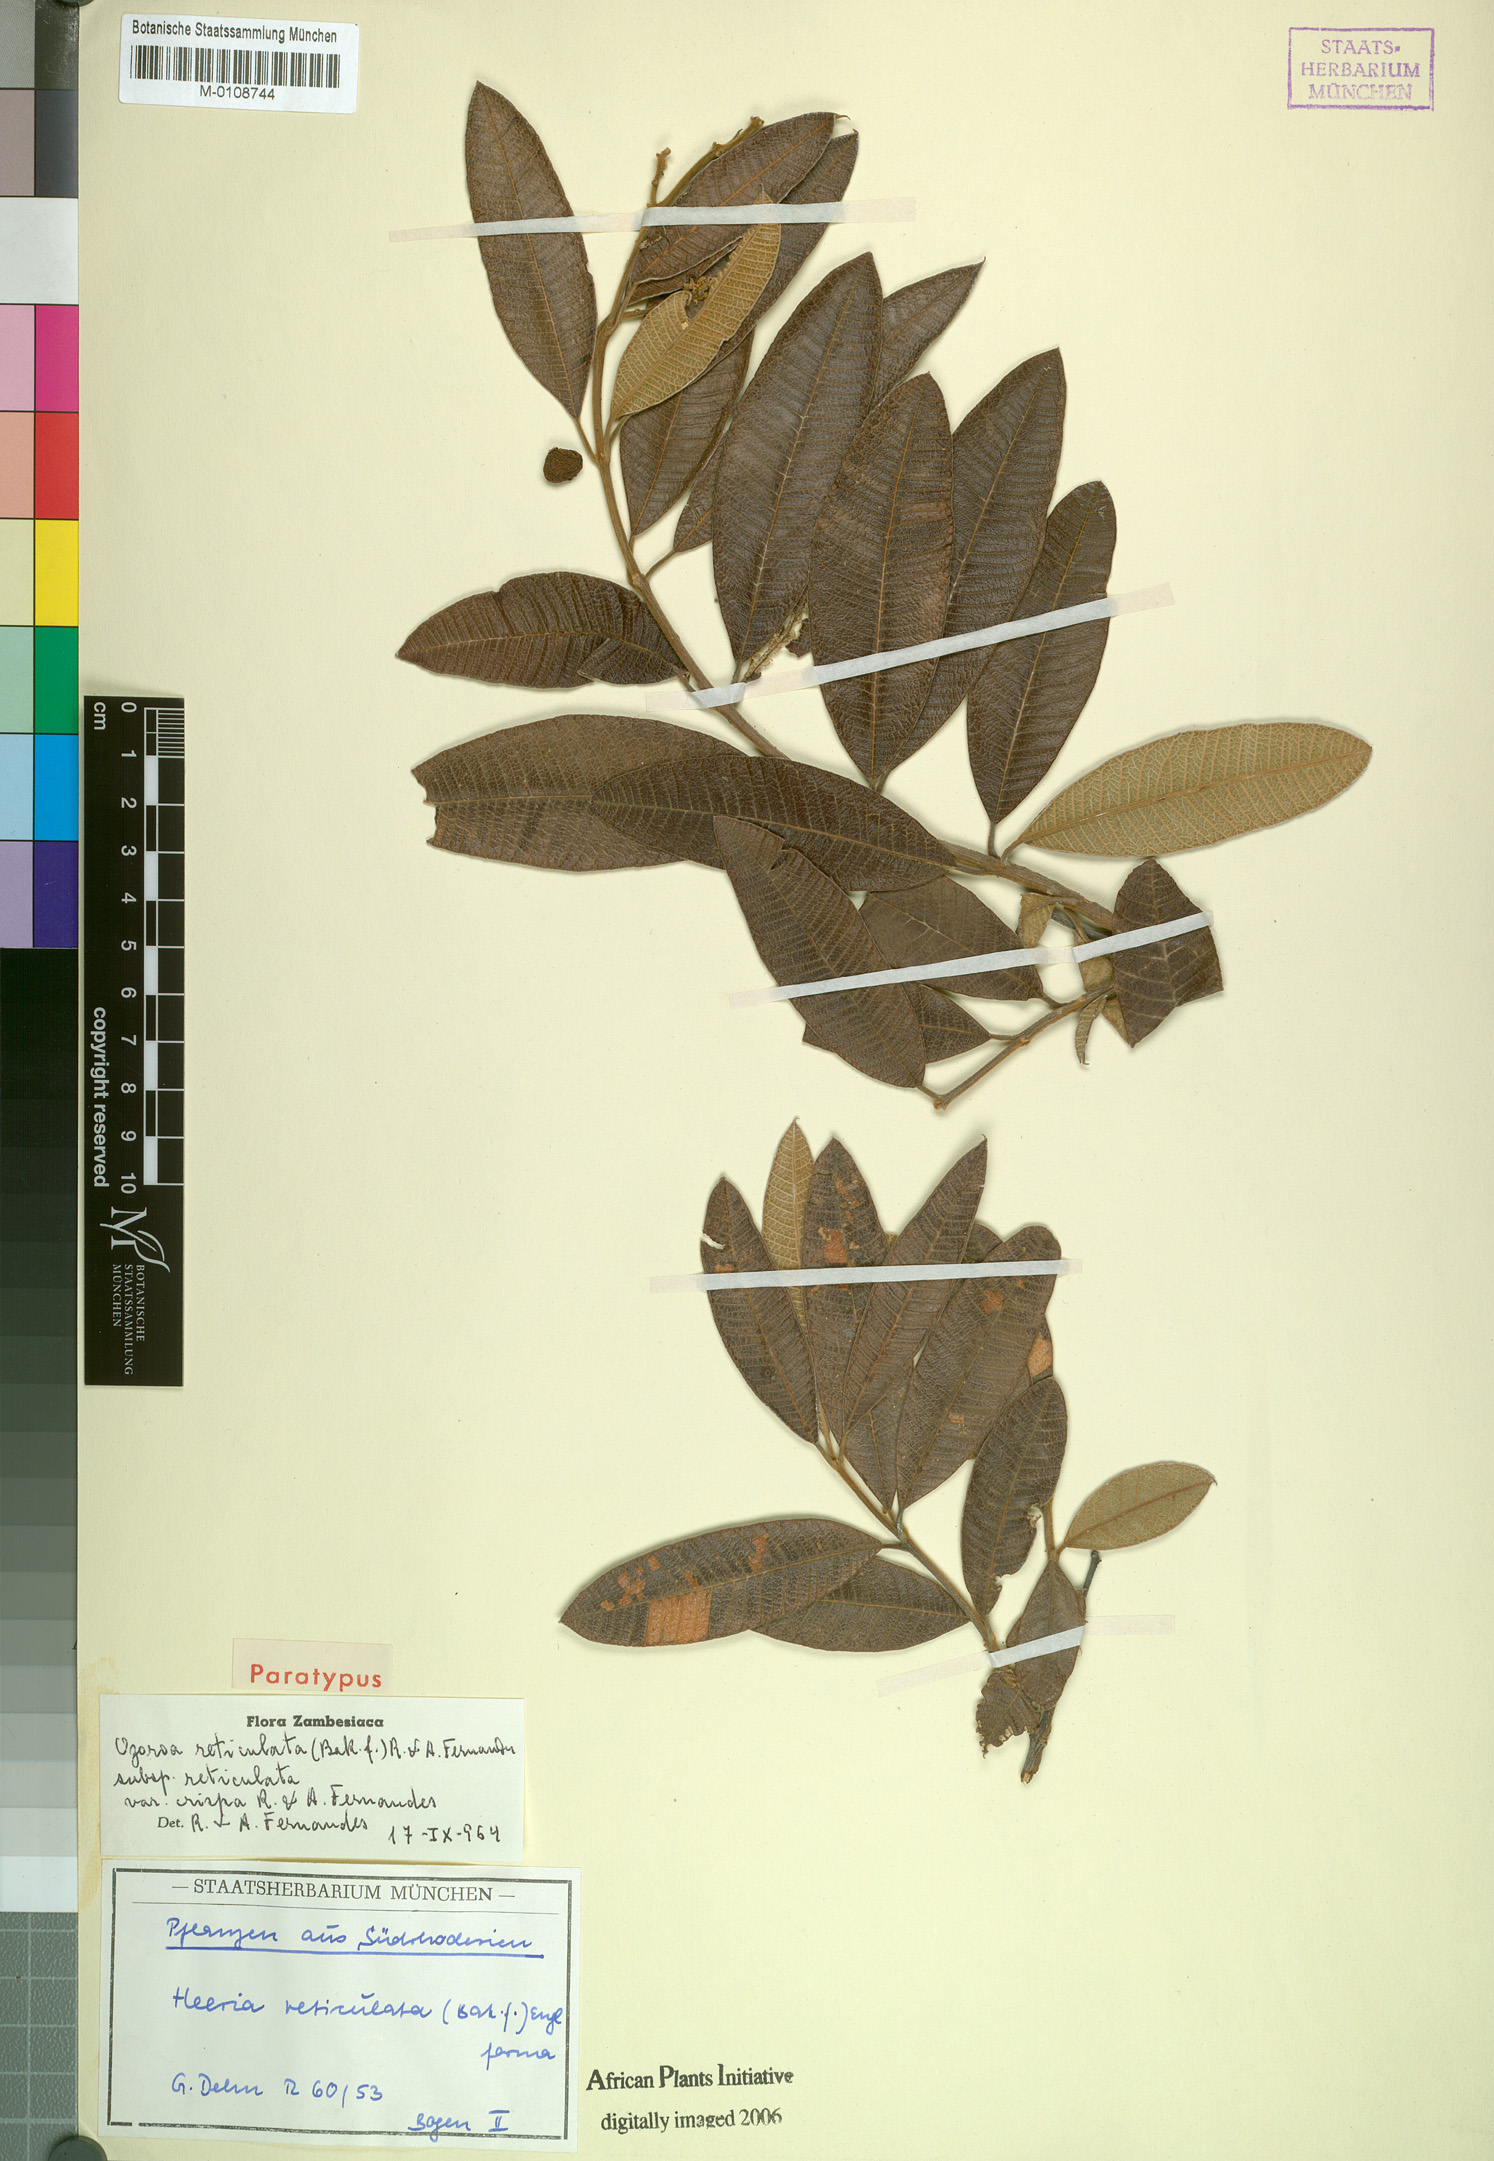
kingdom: Plantae
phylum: Tracheophyta
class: Magnoliopsida
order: Sapindales
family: Anacardiaceae
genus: Ozoroa
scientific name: Ozoroa insignis
